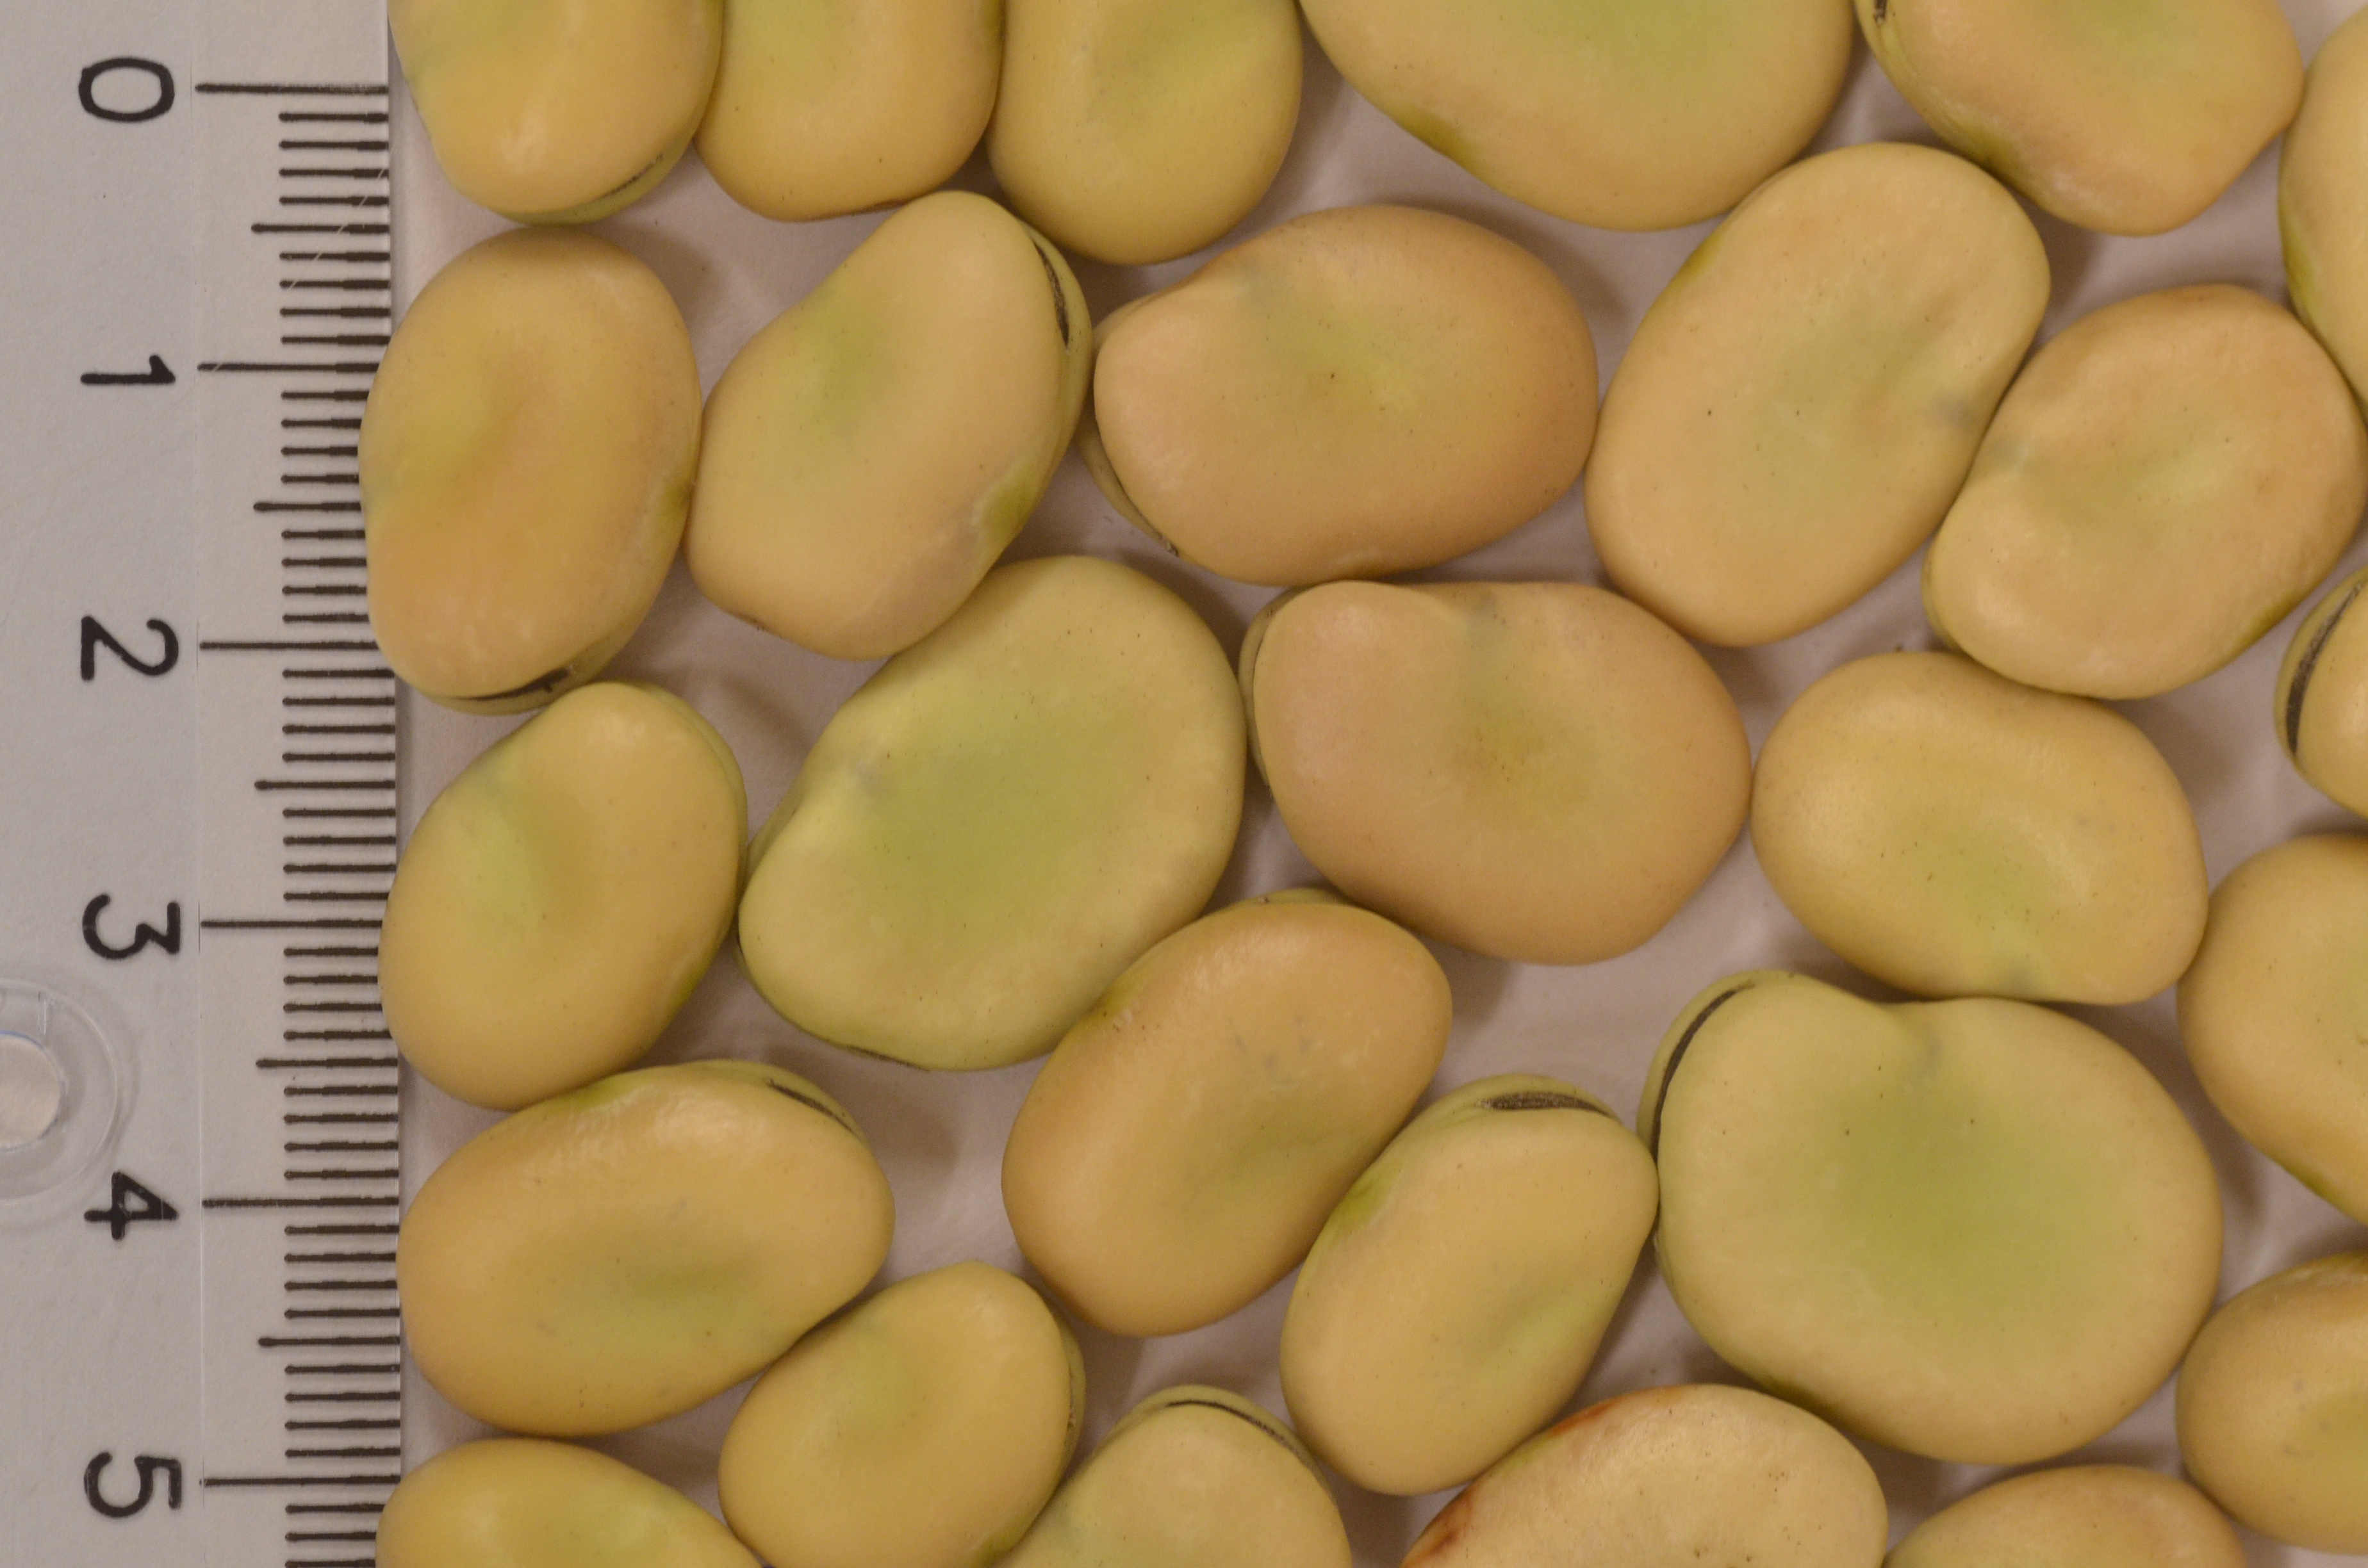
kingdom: Plantae
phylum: Tracheophyta
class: Magnoliopsida
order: Fabales
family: Fabaceae
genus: Vicia
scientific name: Vicia faba
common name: Broad bean
